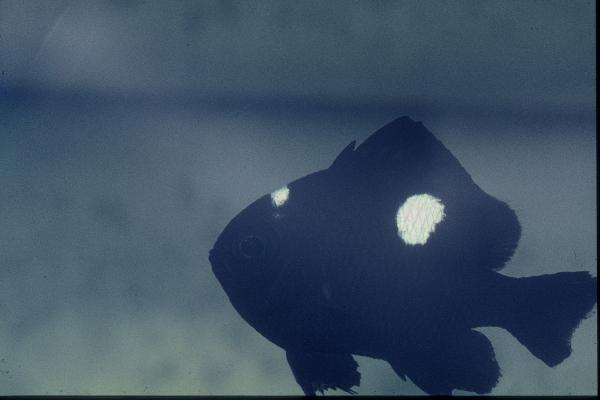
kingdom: Animalia
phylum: Chordata
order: Perciformes
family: Pomacentridae
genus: Dascyllus
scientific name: Dascyllus trimaculatus
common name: Threespot dascyllus
